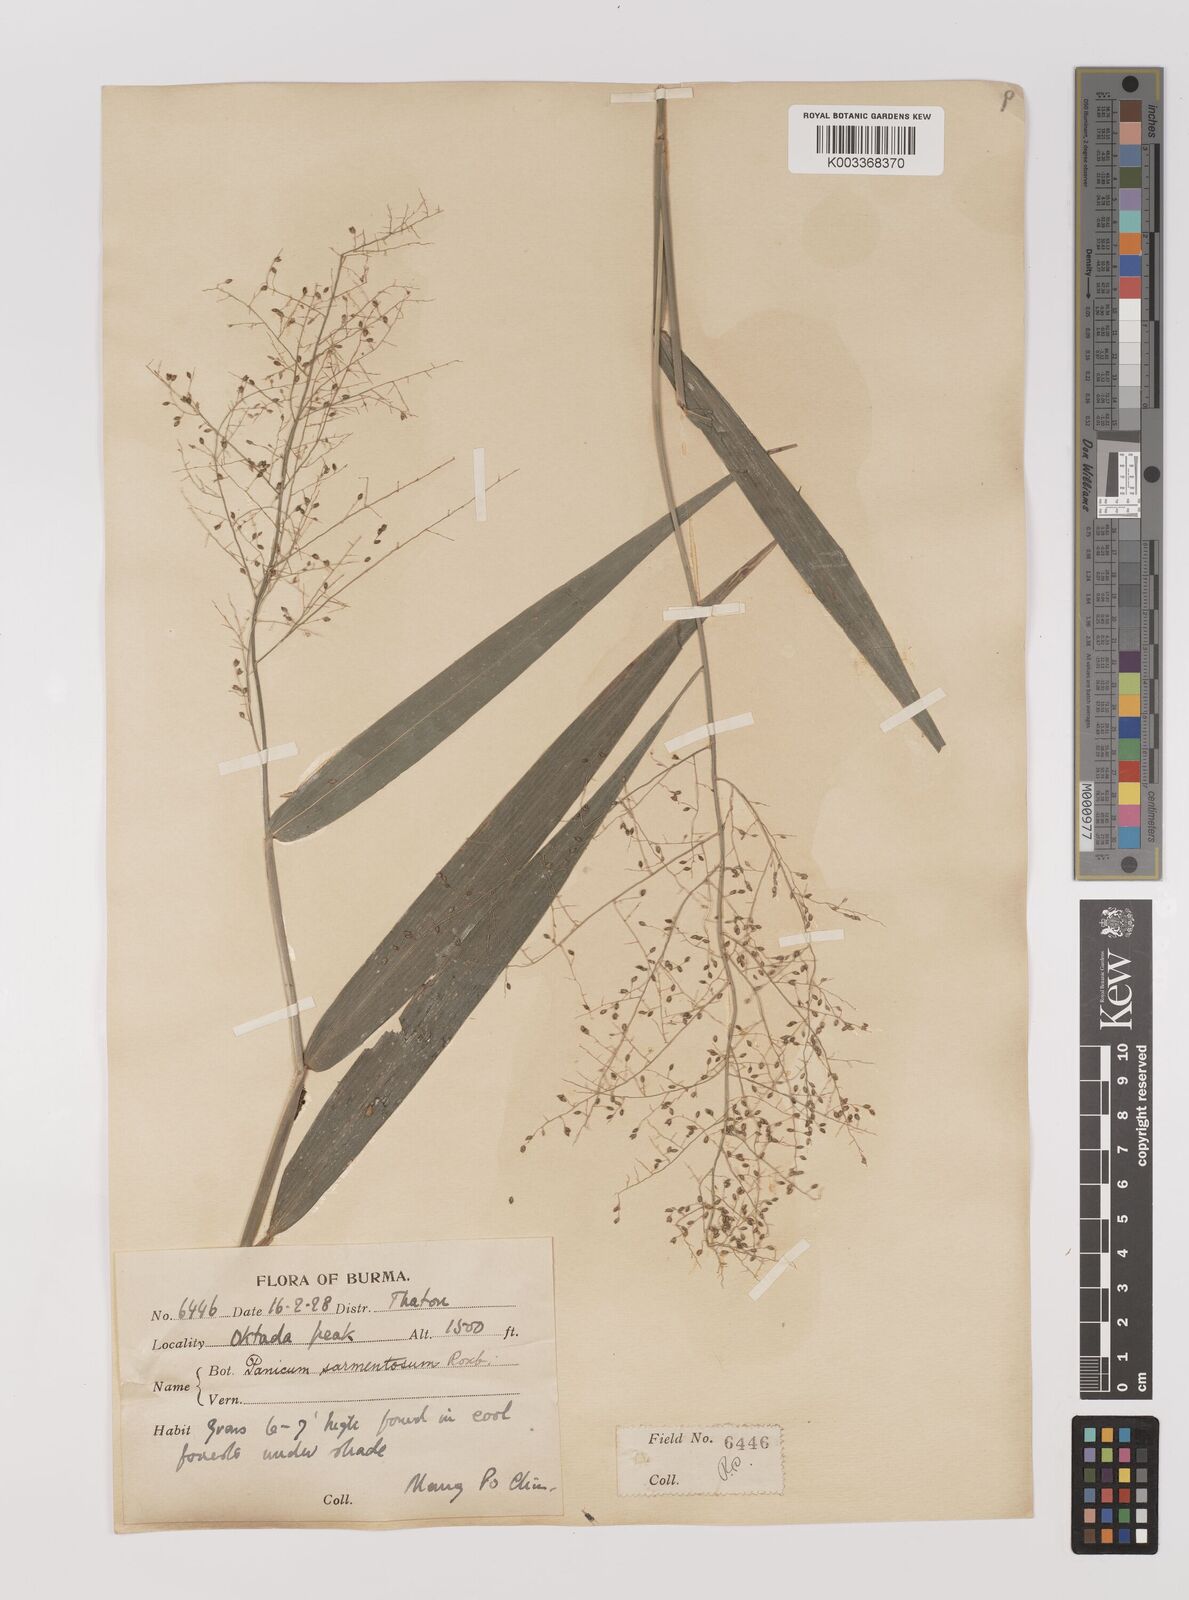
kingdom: Plantae
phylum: Tracheophyta
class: Liliopsida
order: Poales
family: Poaceae
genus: Panicum
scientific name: Panicum sarmentosum
